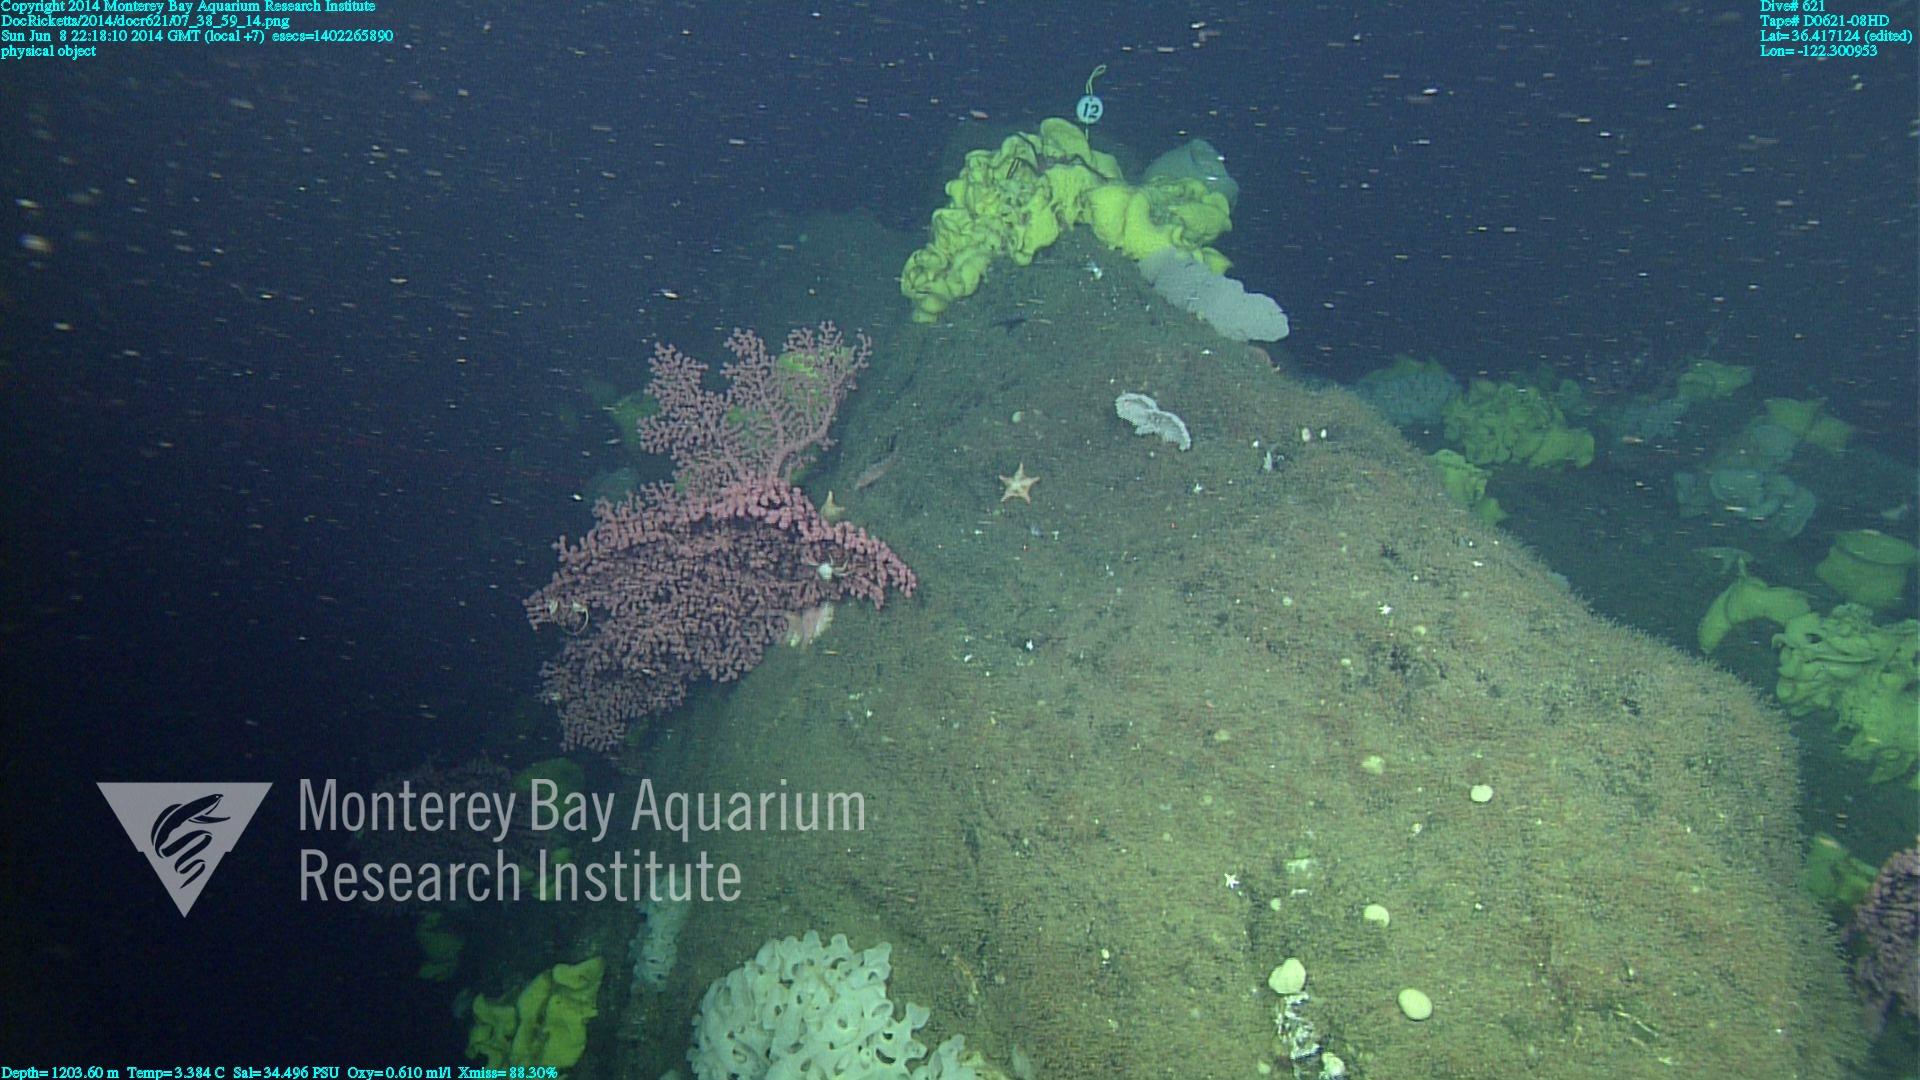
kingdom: Animalia
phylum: Cnidaria
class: Anthozoa
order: Scleralcyonacea
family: Coralliidae
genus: Paragorgia
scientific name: Paragorgia arborea
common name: Bubble gum coral
